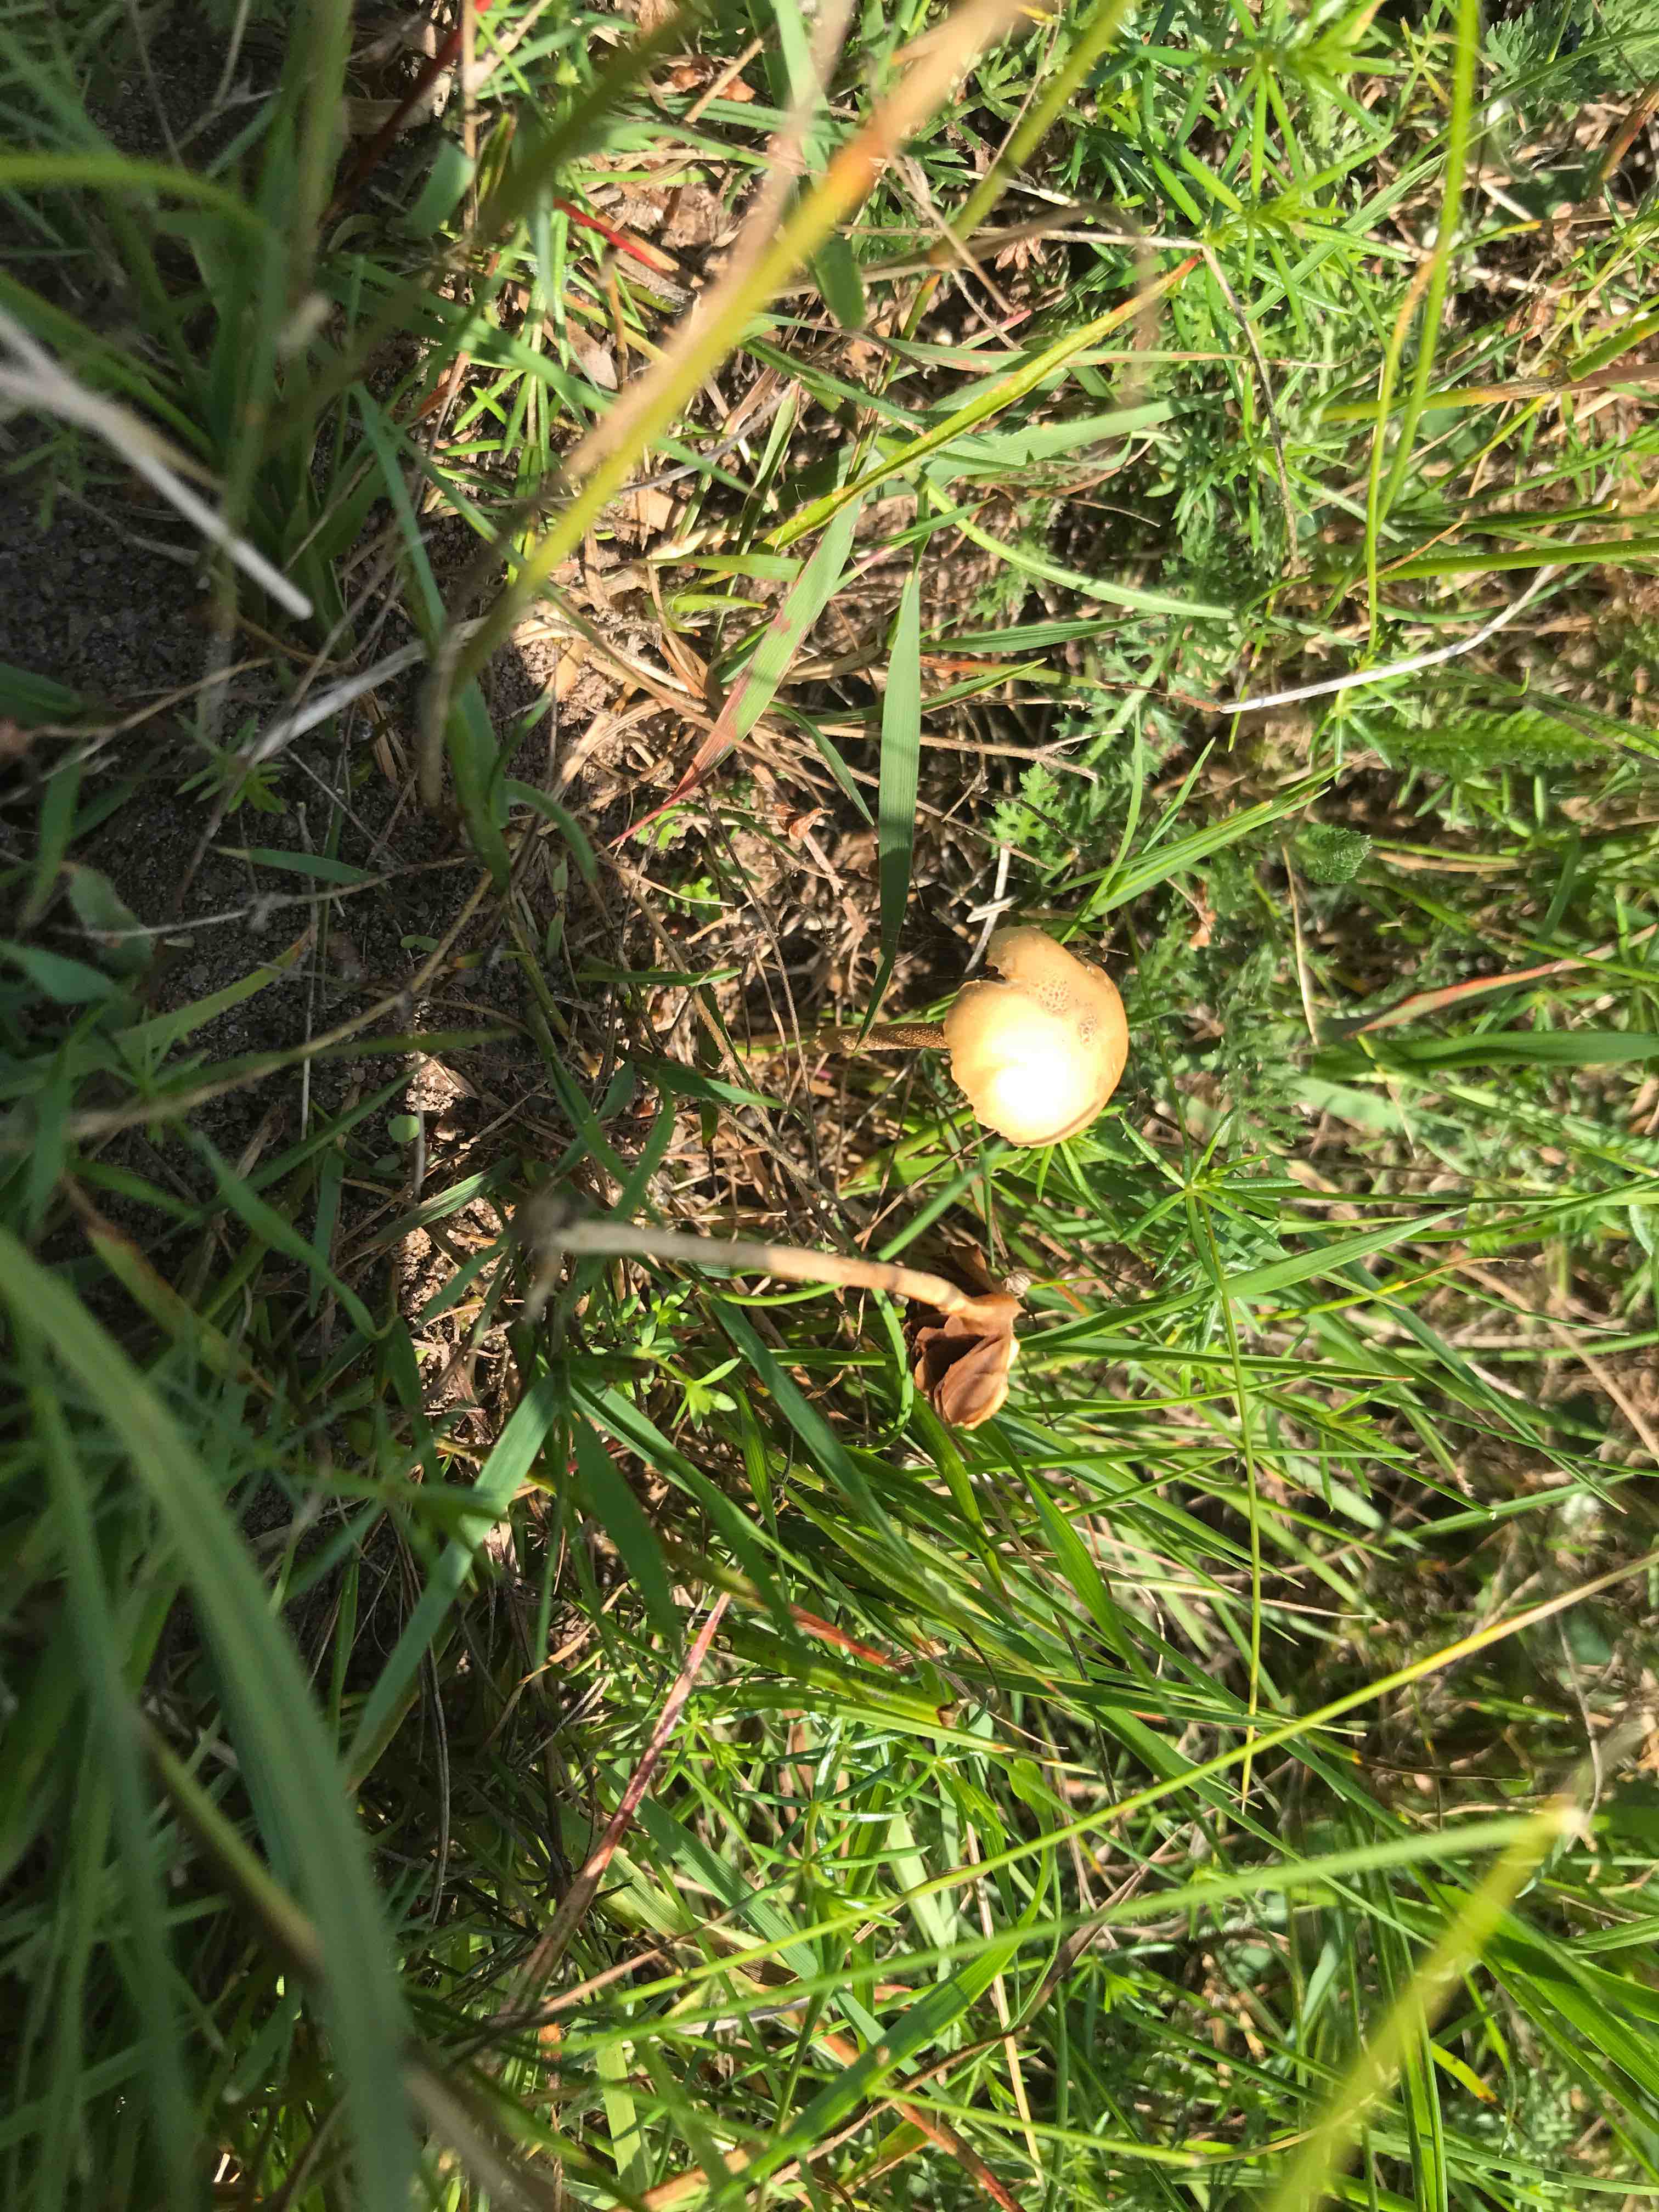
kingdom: Fungi
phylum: Basidiomycota
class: Agaricomycetes
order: Agaricales
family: Strophariaceae
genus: Agrocybe
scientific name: Agrocybe pediades
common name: almindelig agerhat
